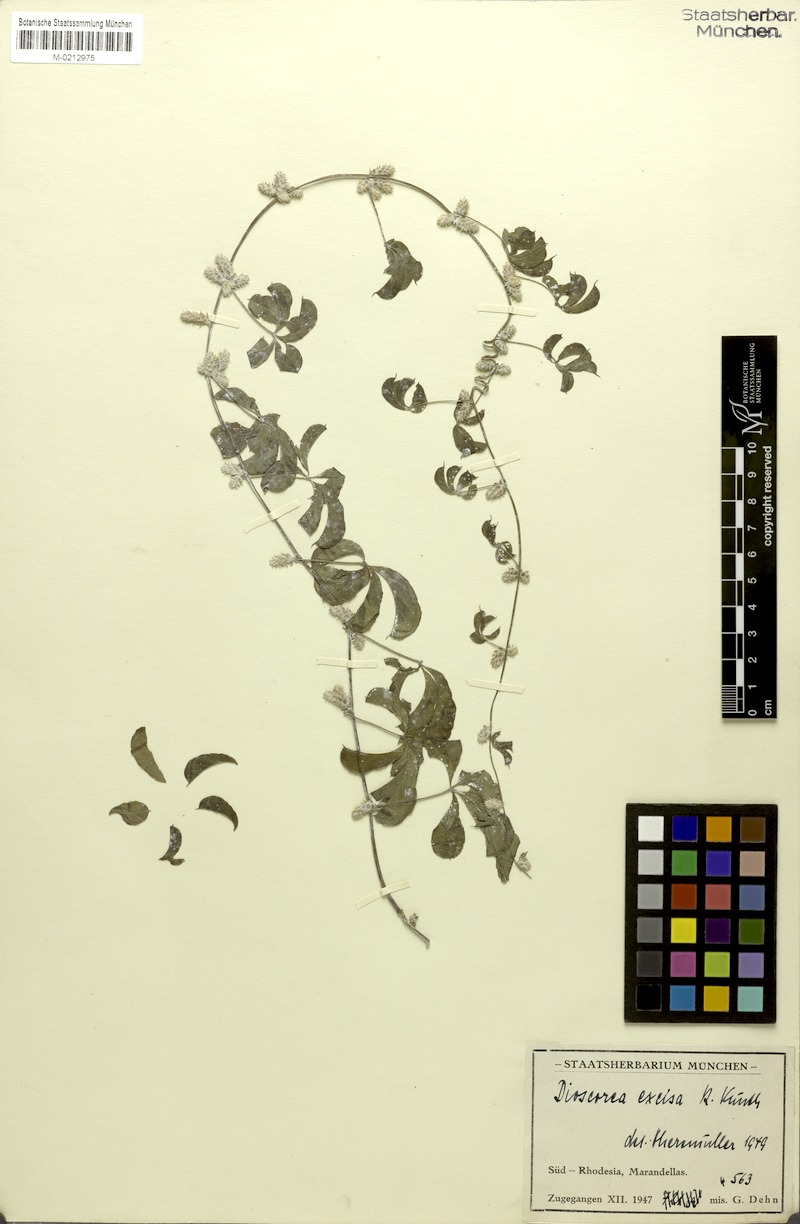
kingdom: Plantae
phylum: Tracheophyta
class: Liliopsida
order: Dioscoreales
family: Dioscoreaceae
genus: Dioscorea
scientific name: Dioscorea quartiniana
